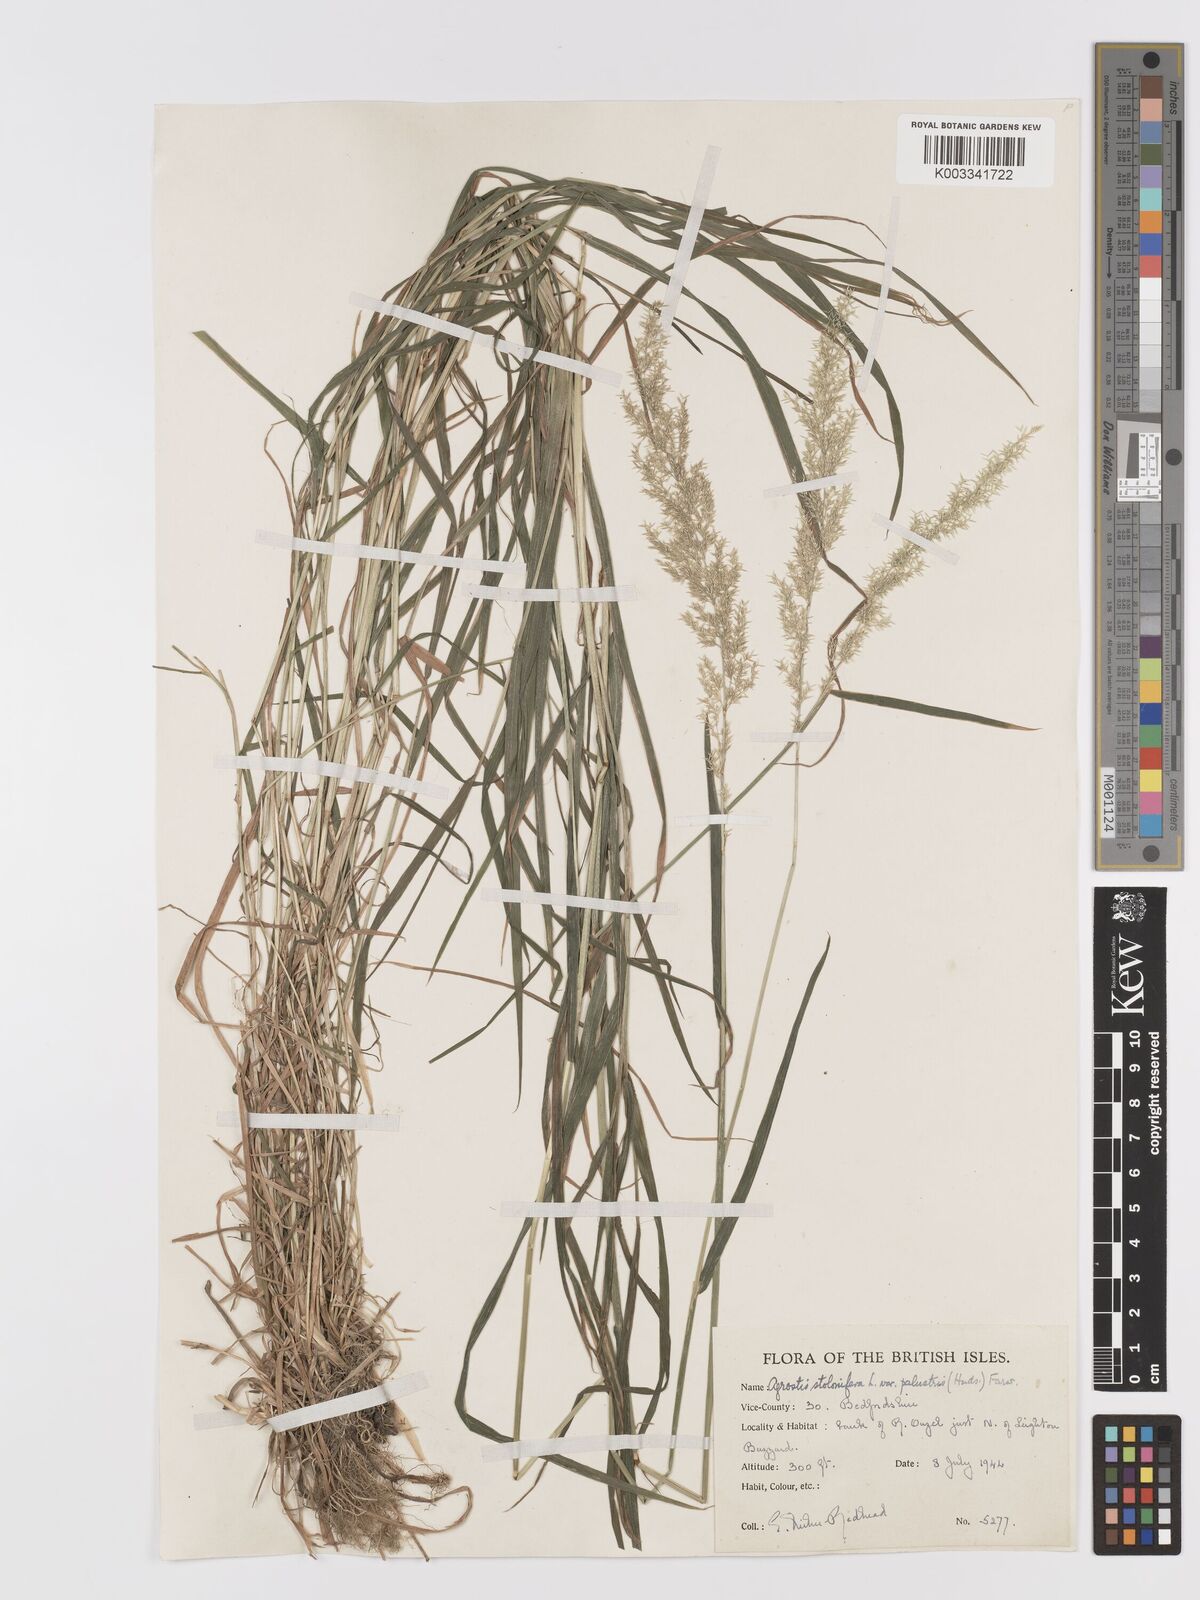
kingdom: Plantae
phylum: Tracheophyta
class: Liliopsida
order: Poales
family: Poaceae
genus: Agrostis
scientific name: Agrostis stolonifera
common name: Creeping bentgrass
